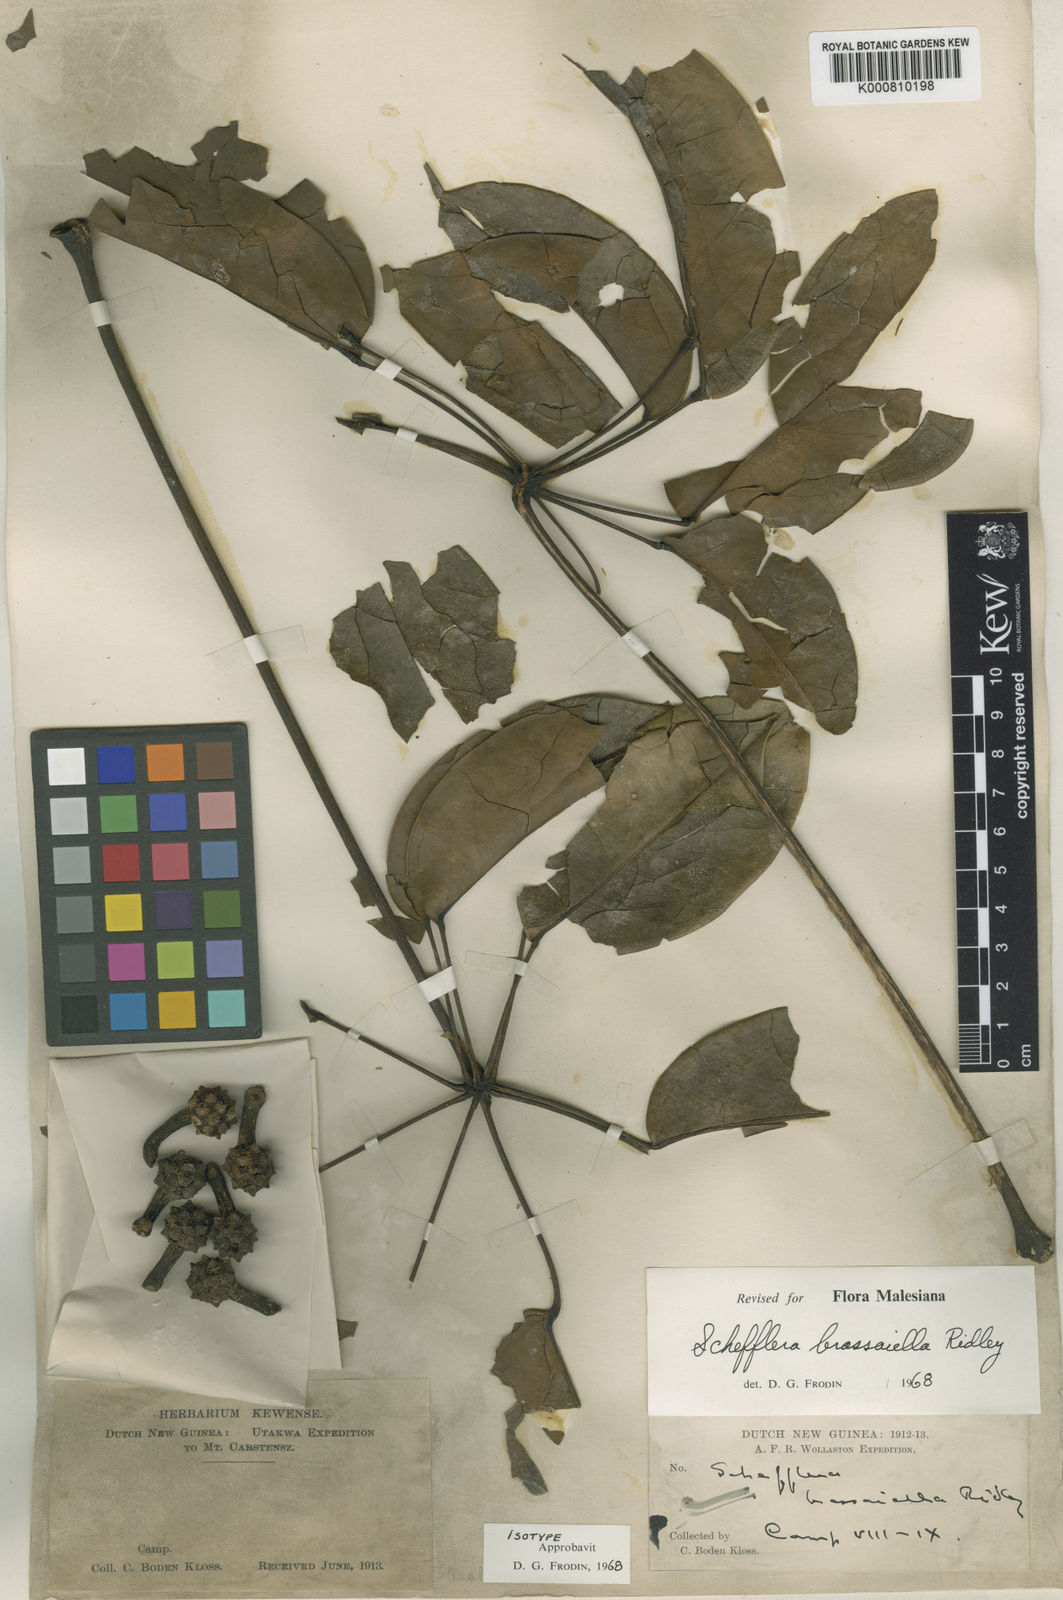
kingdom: Plantae
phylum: Tracheophyta
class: Magnoliopsida
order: Apiales
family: Araliaceae
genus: Heptapleurum
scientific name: Heptapleurum brassaiellum
